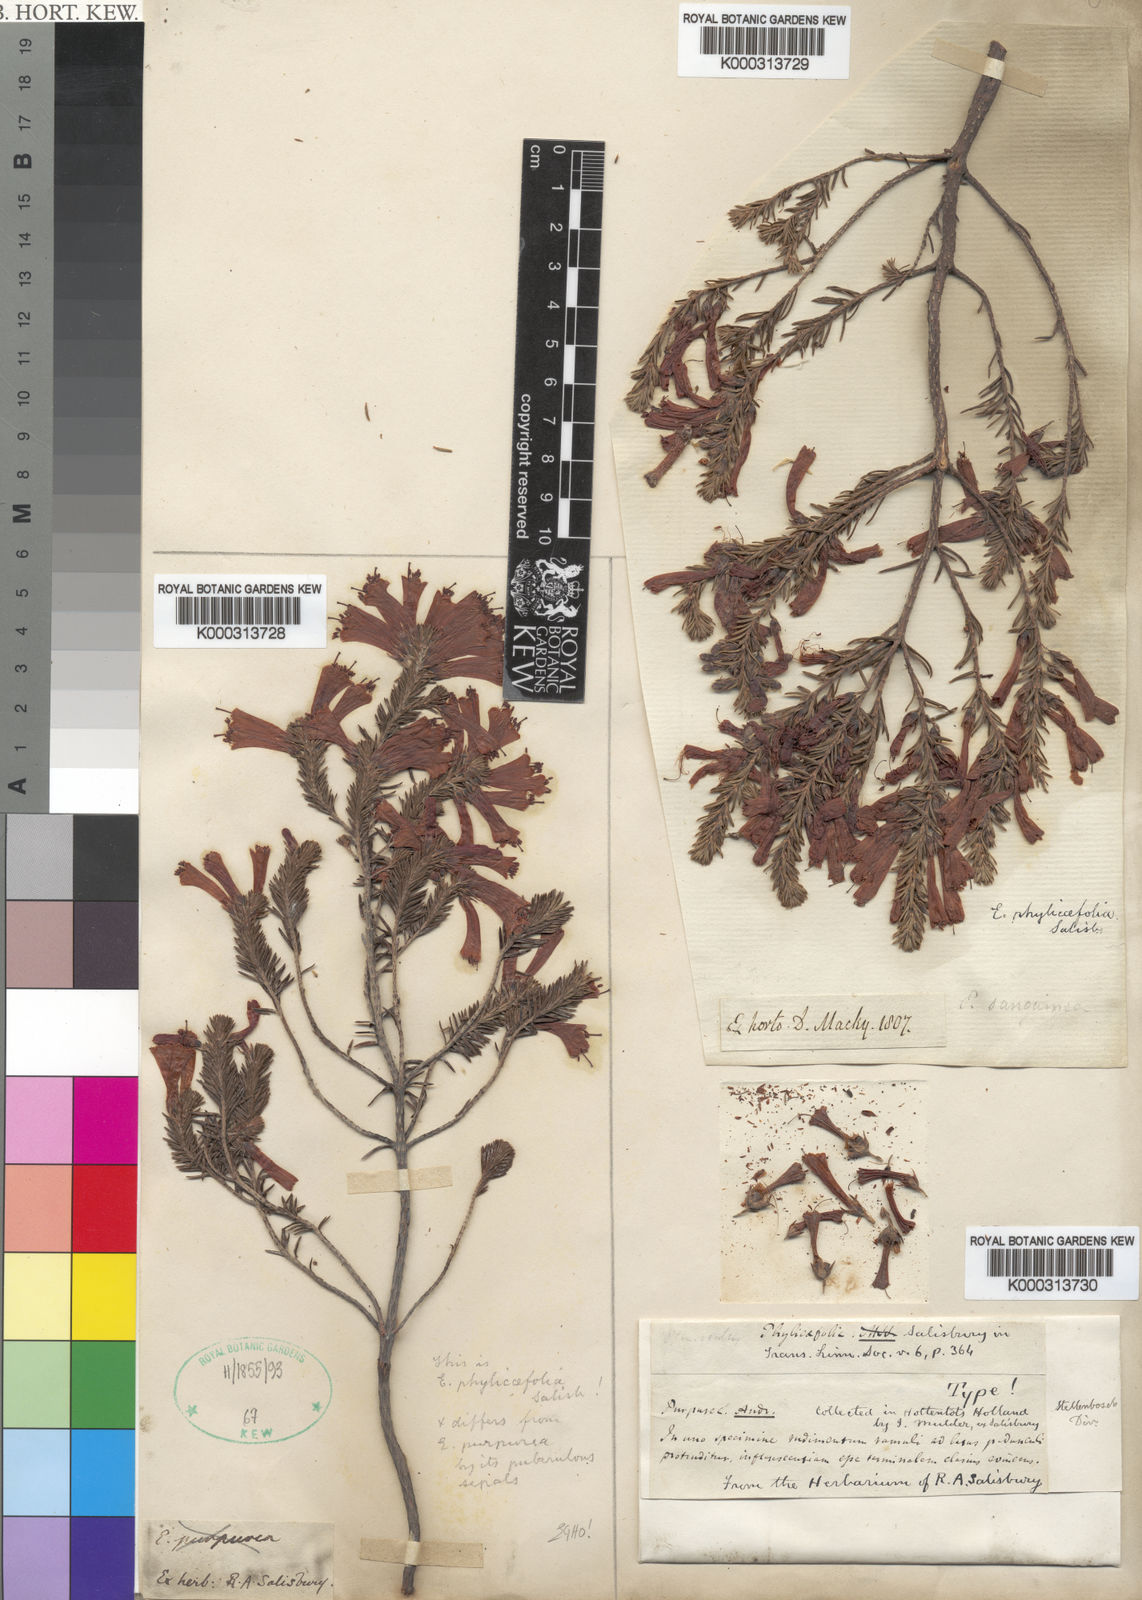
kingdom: Plantae
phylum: Tracheophyta
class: Magnoliopsida
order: Ericales
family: Ericaceae
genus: Erica
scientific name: Erica abietina
